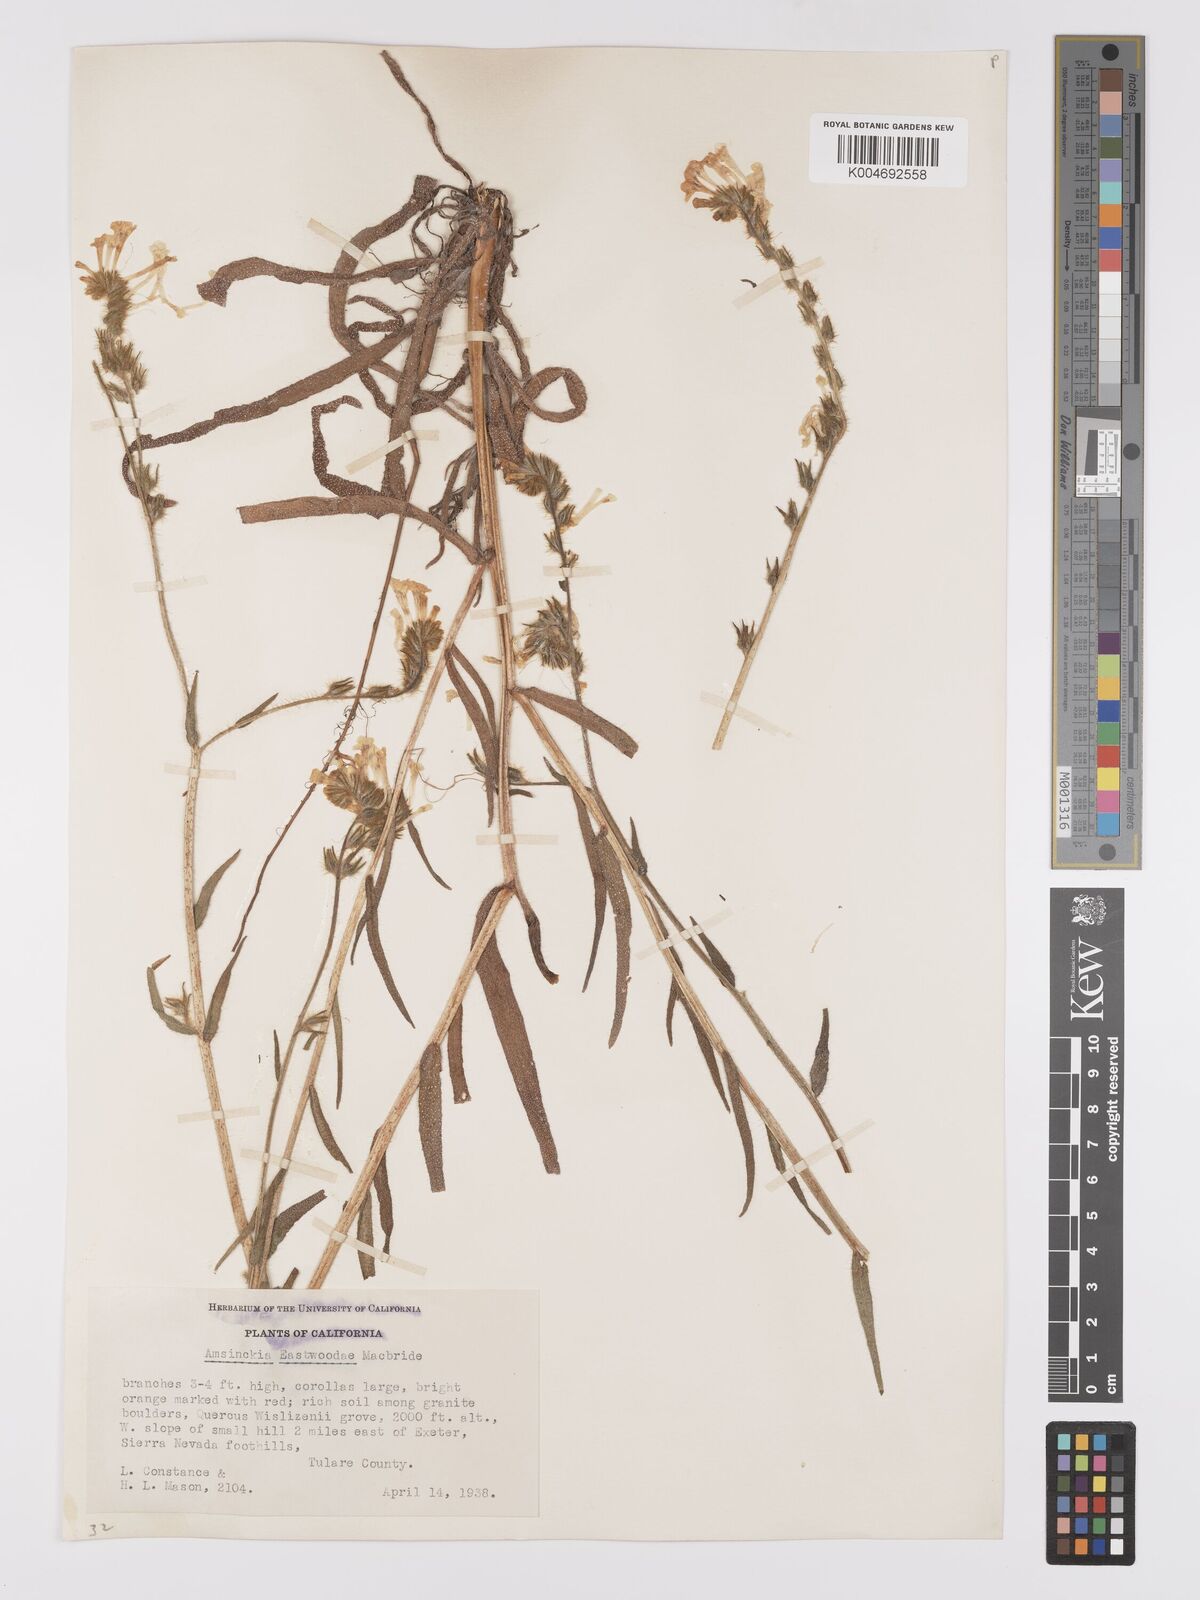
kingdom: Plantae
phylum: Tracheophyta
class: Magnoliopsida
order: Boraginales
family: Boraginaceae
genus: Amsinckia
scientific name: Amsinckia eastwoodiae
